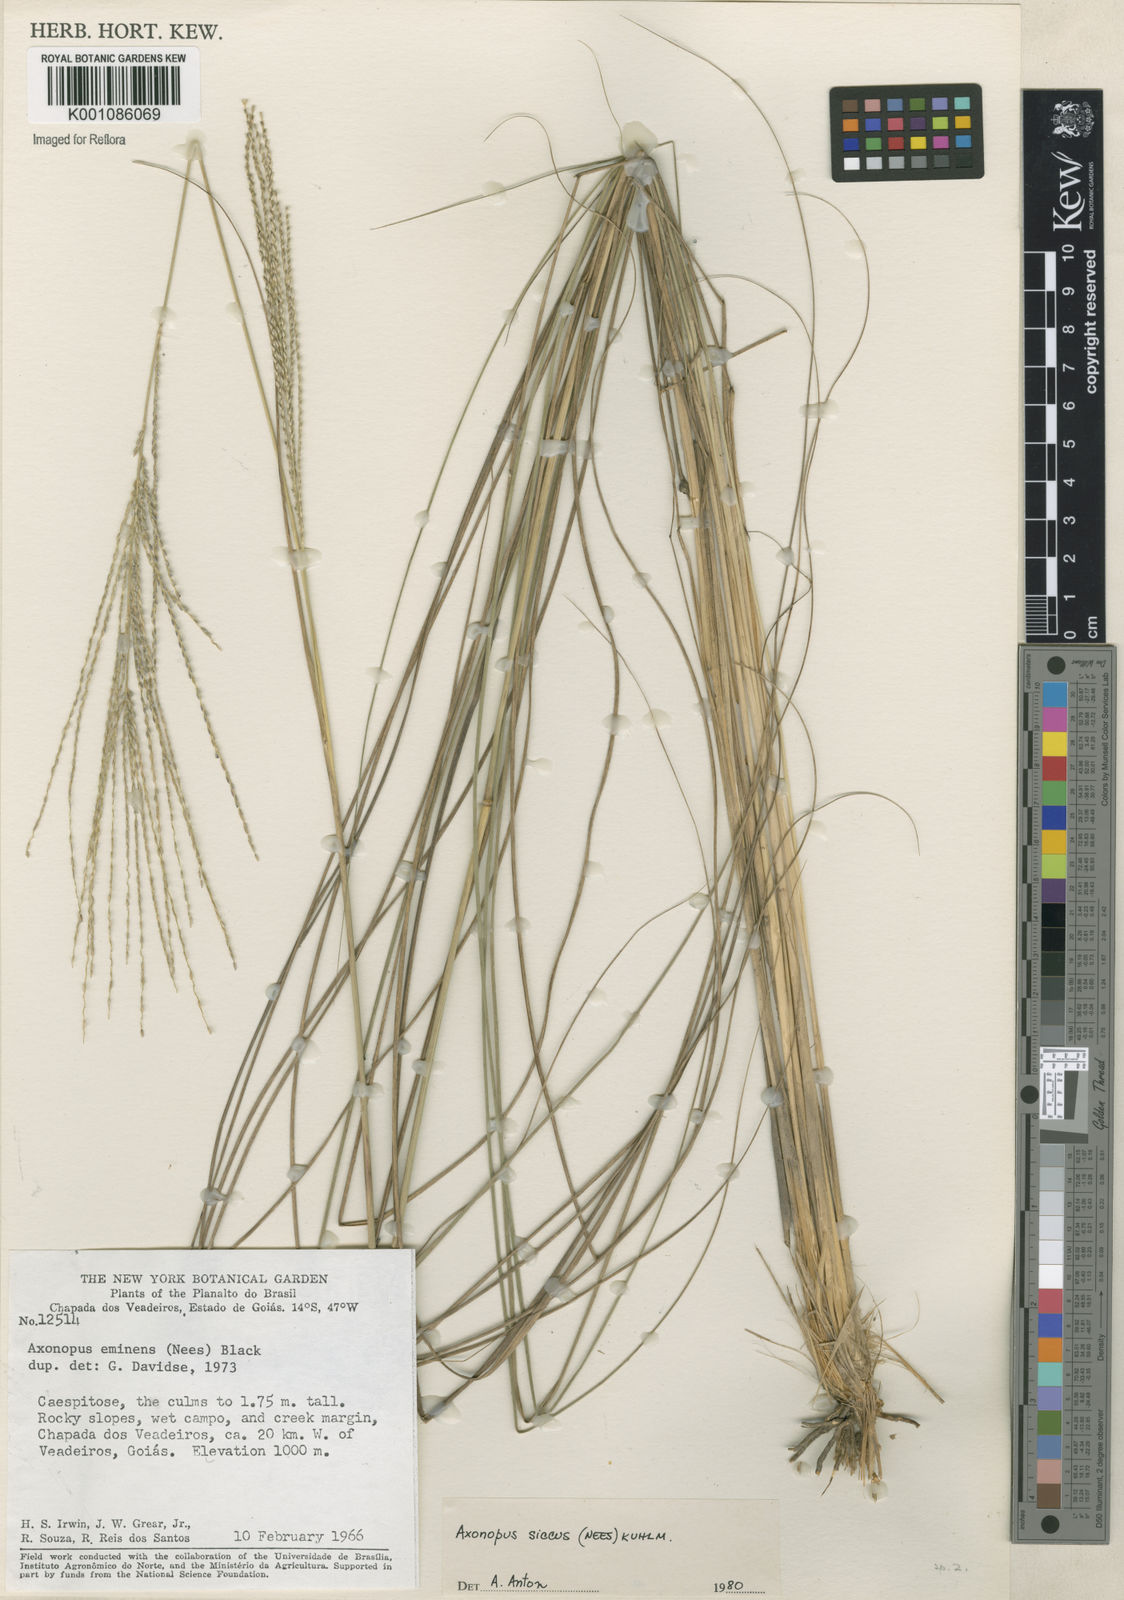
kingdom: Plantae
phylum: Tracheophyta
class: Liliopsida
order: Poales
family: Poaceae
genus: Axonopus
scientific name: Axonopus siccus
